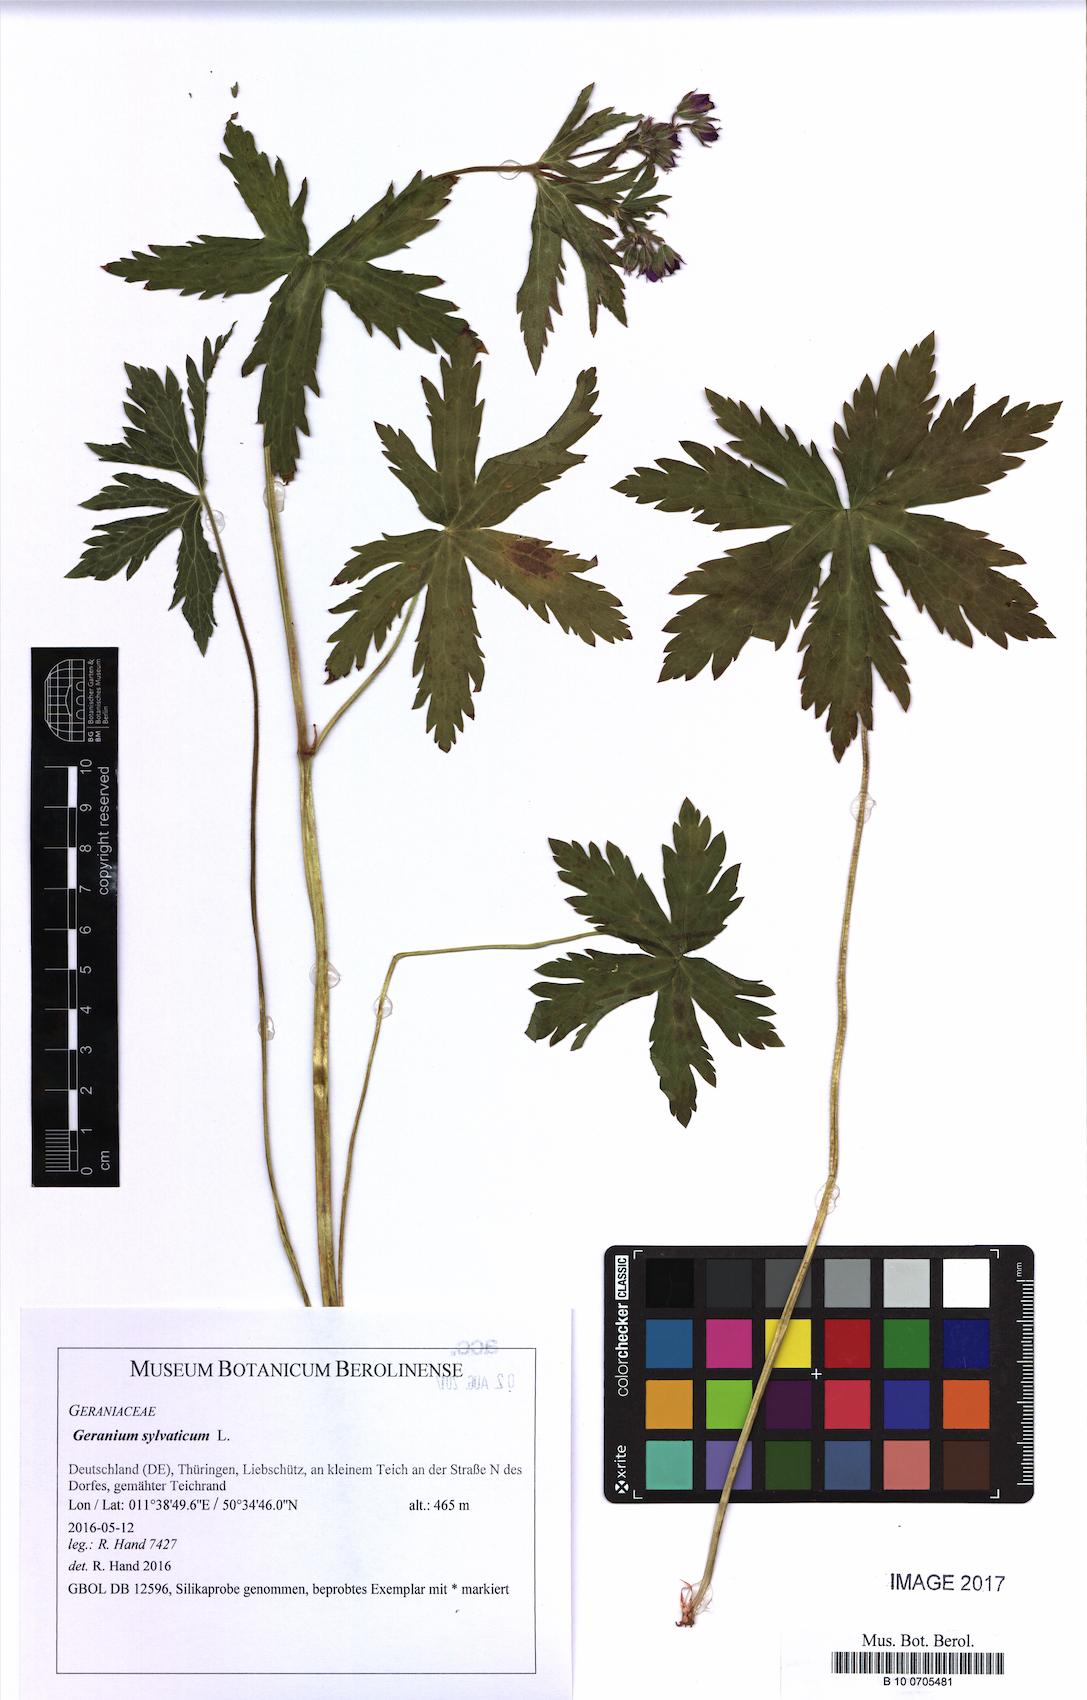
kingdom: Plantae
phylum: Tracheophyta
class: Magnoliopsida
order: Geraniales
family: Geraniaceae
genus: Geranium
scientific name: Geranium sylvaticum
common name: Wood crane's-bill
